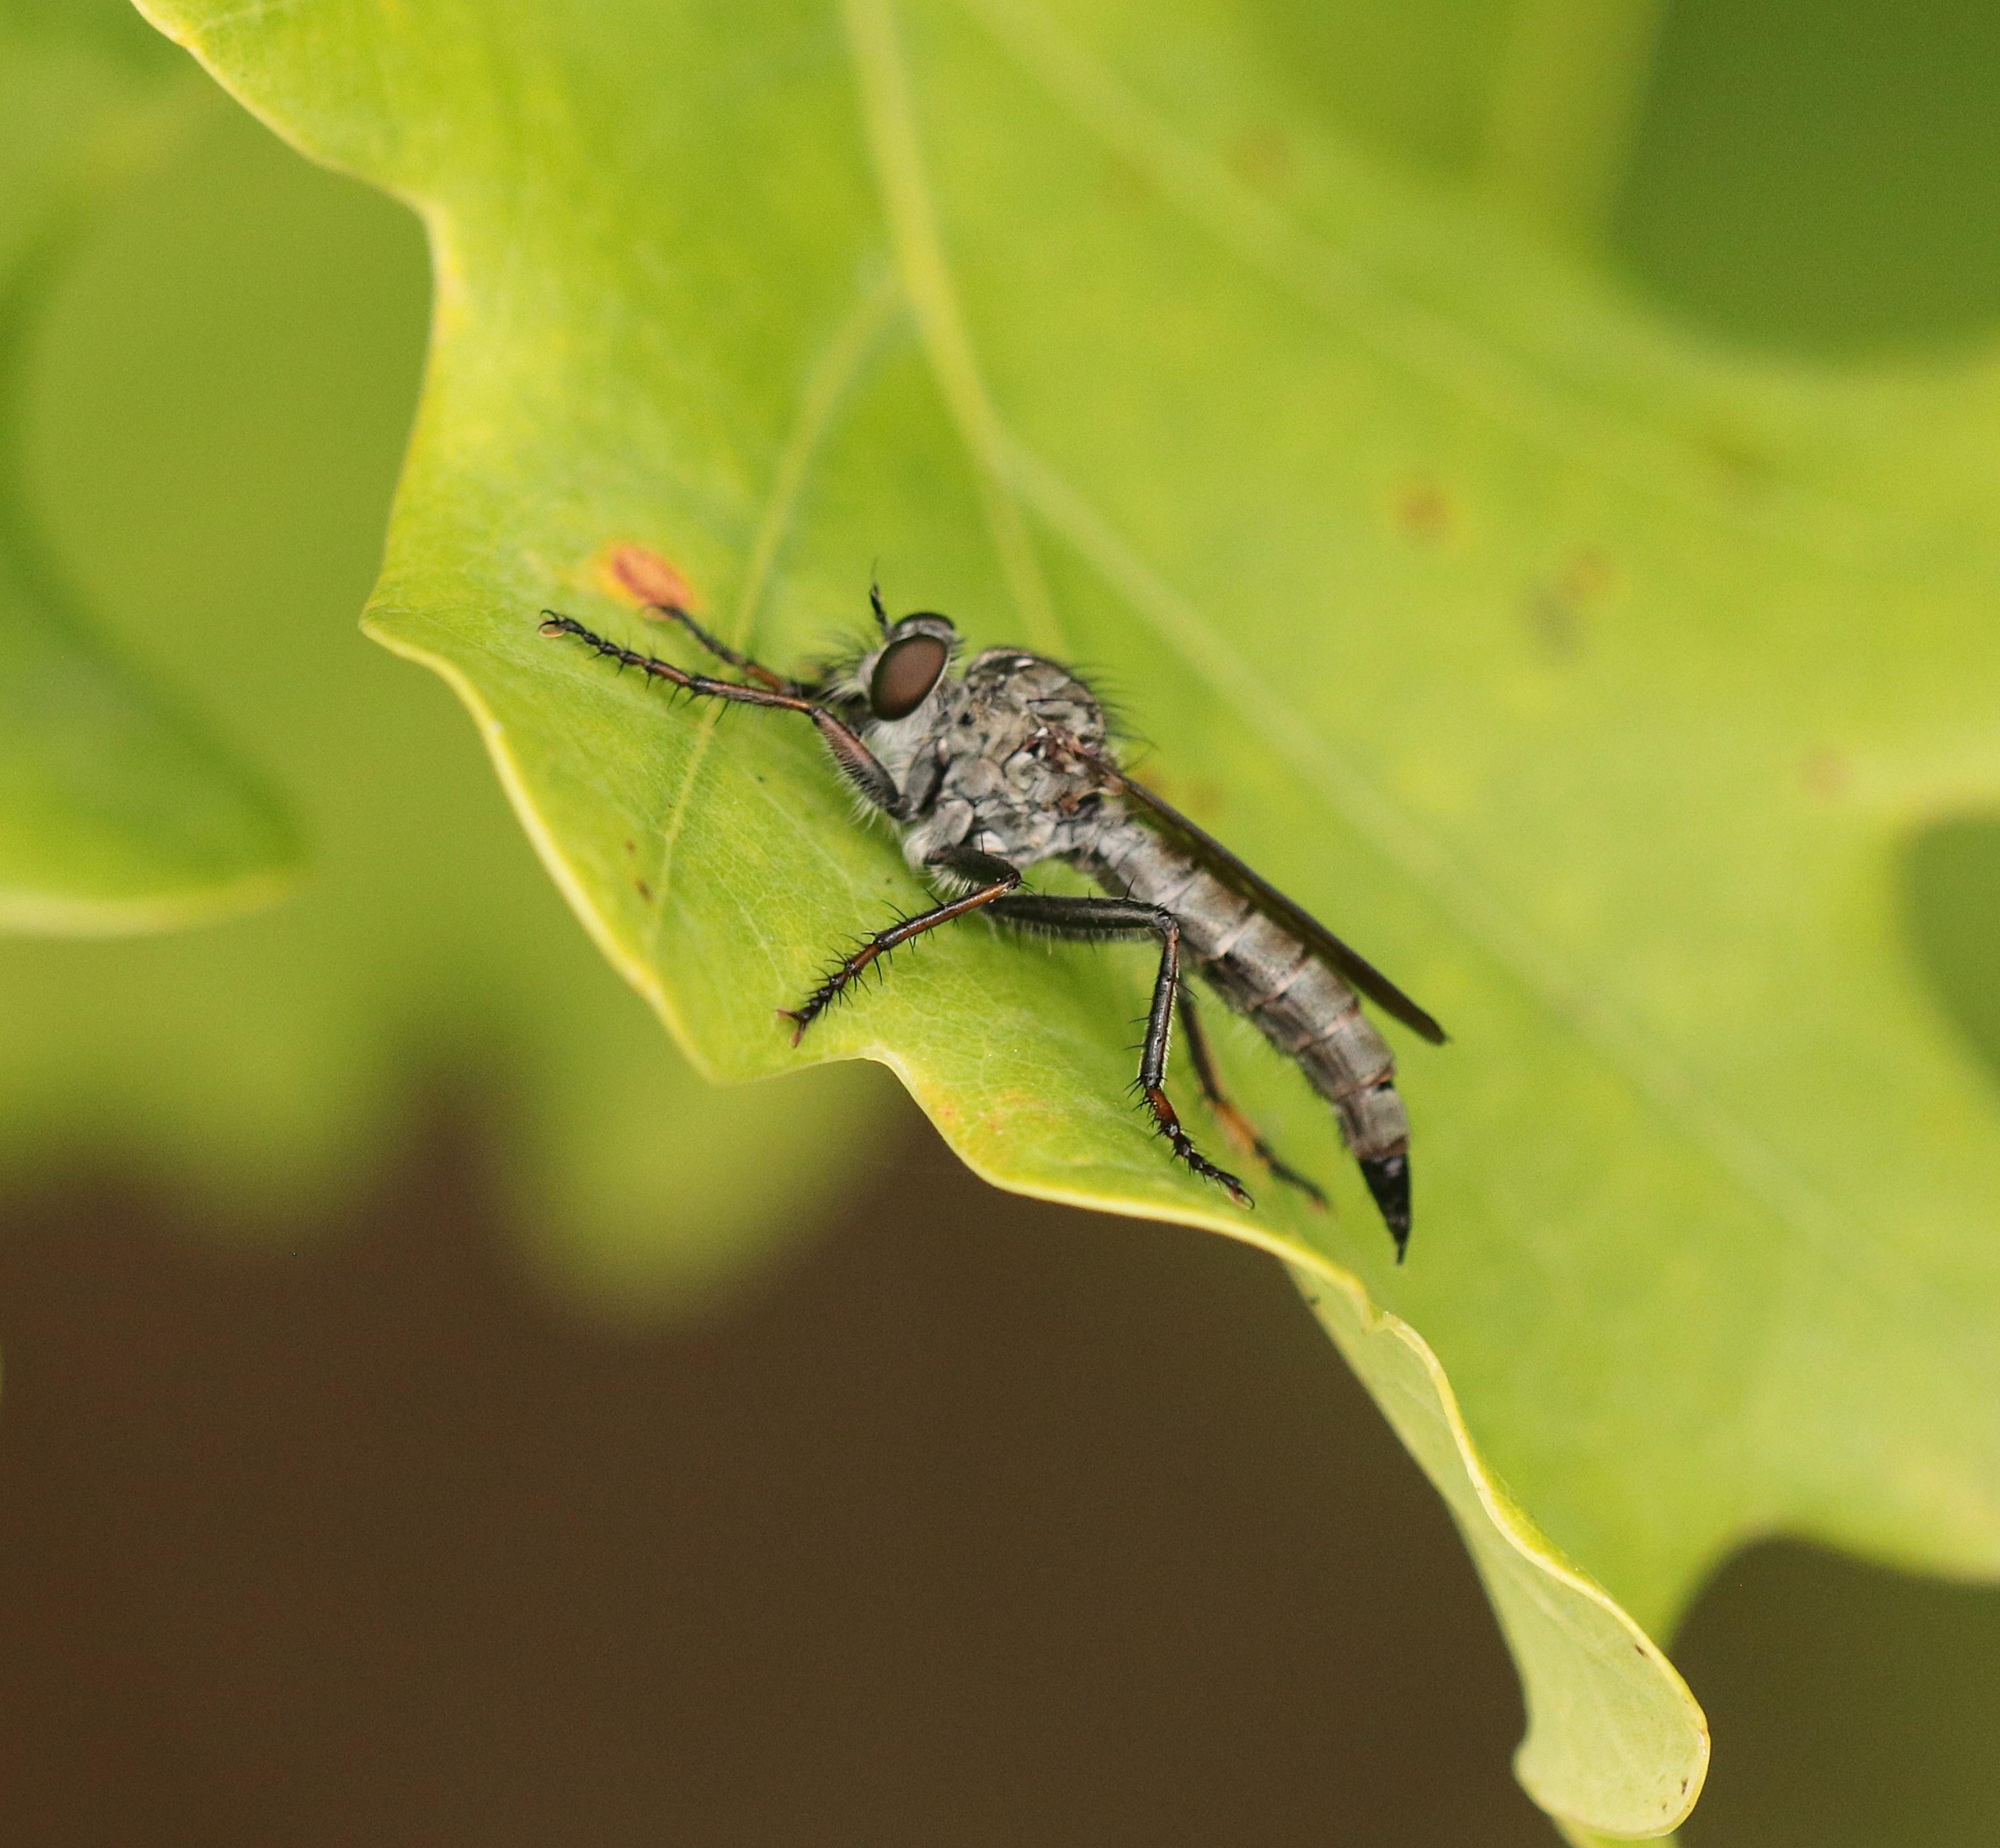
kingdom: Animalia
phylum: Arthropoda
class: Insecta
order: Diptera
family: Asilidae
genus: Machimus
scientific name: Machimus atricapillus
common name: Sort hårrovflue
